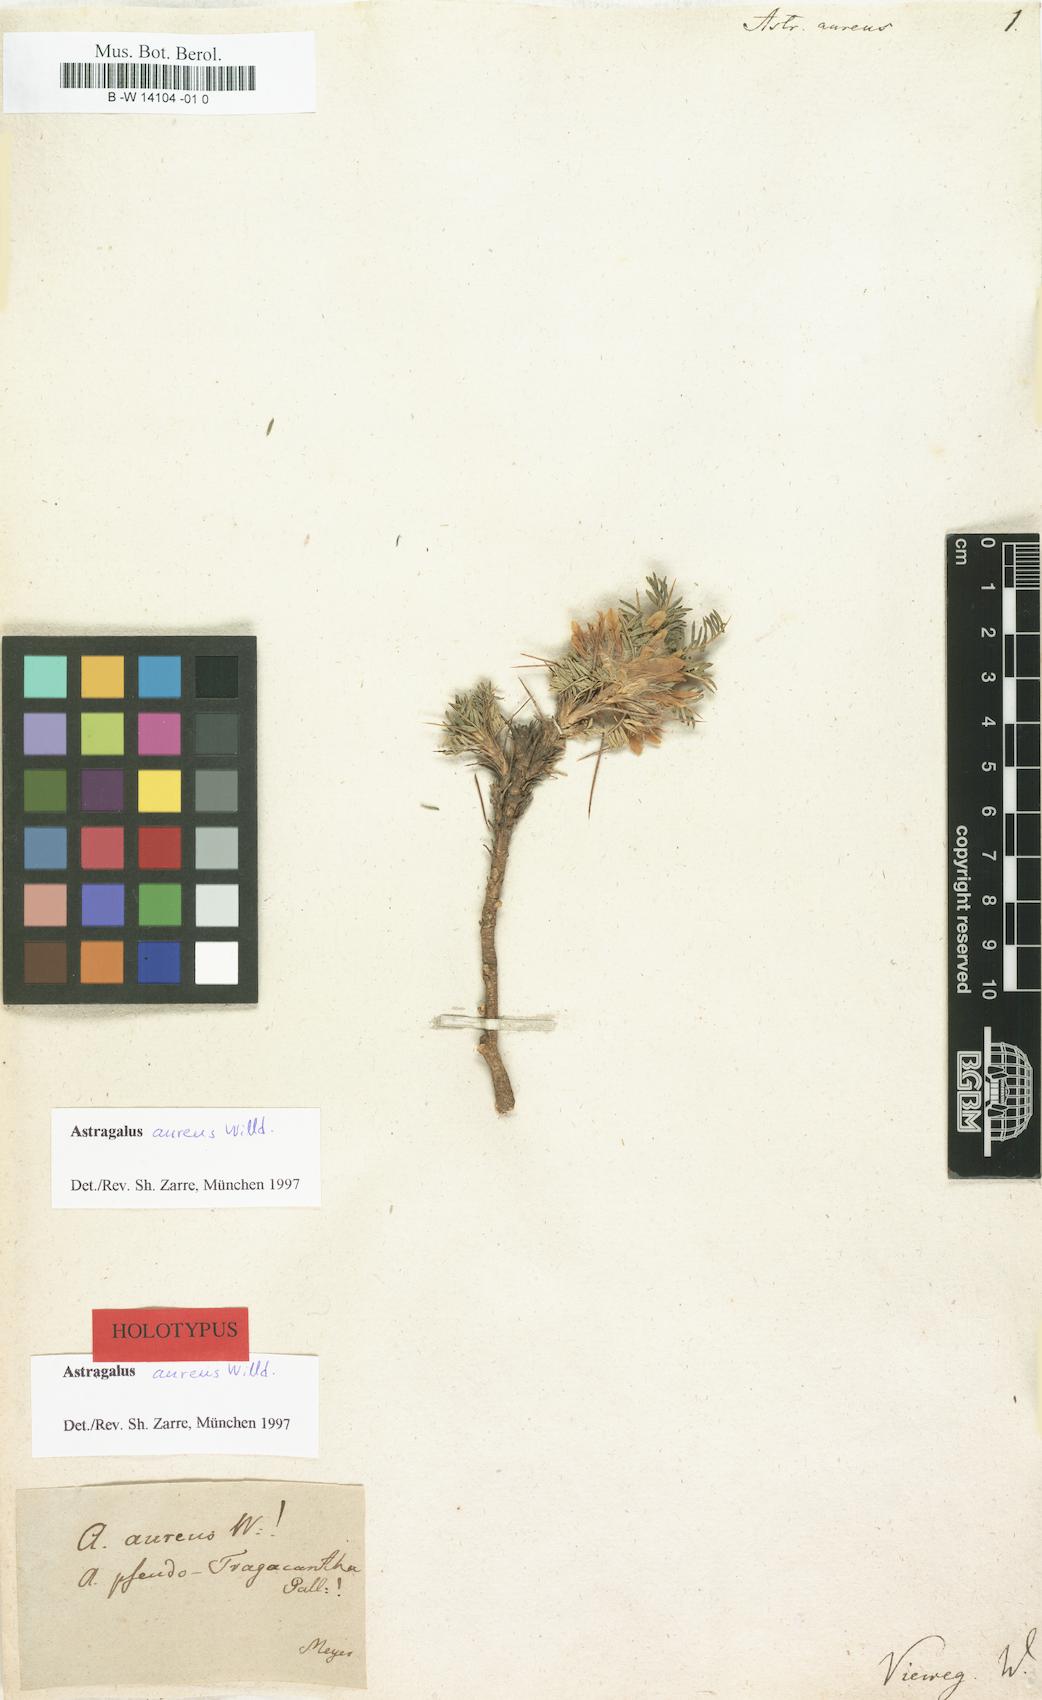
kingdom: Plantae
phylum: Tracheophyta
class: Magnoliopsida
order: Fabales
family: Fabaceae
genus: Astragalus
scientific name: Astragalus aureus
